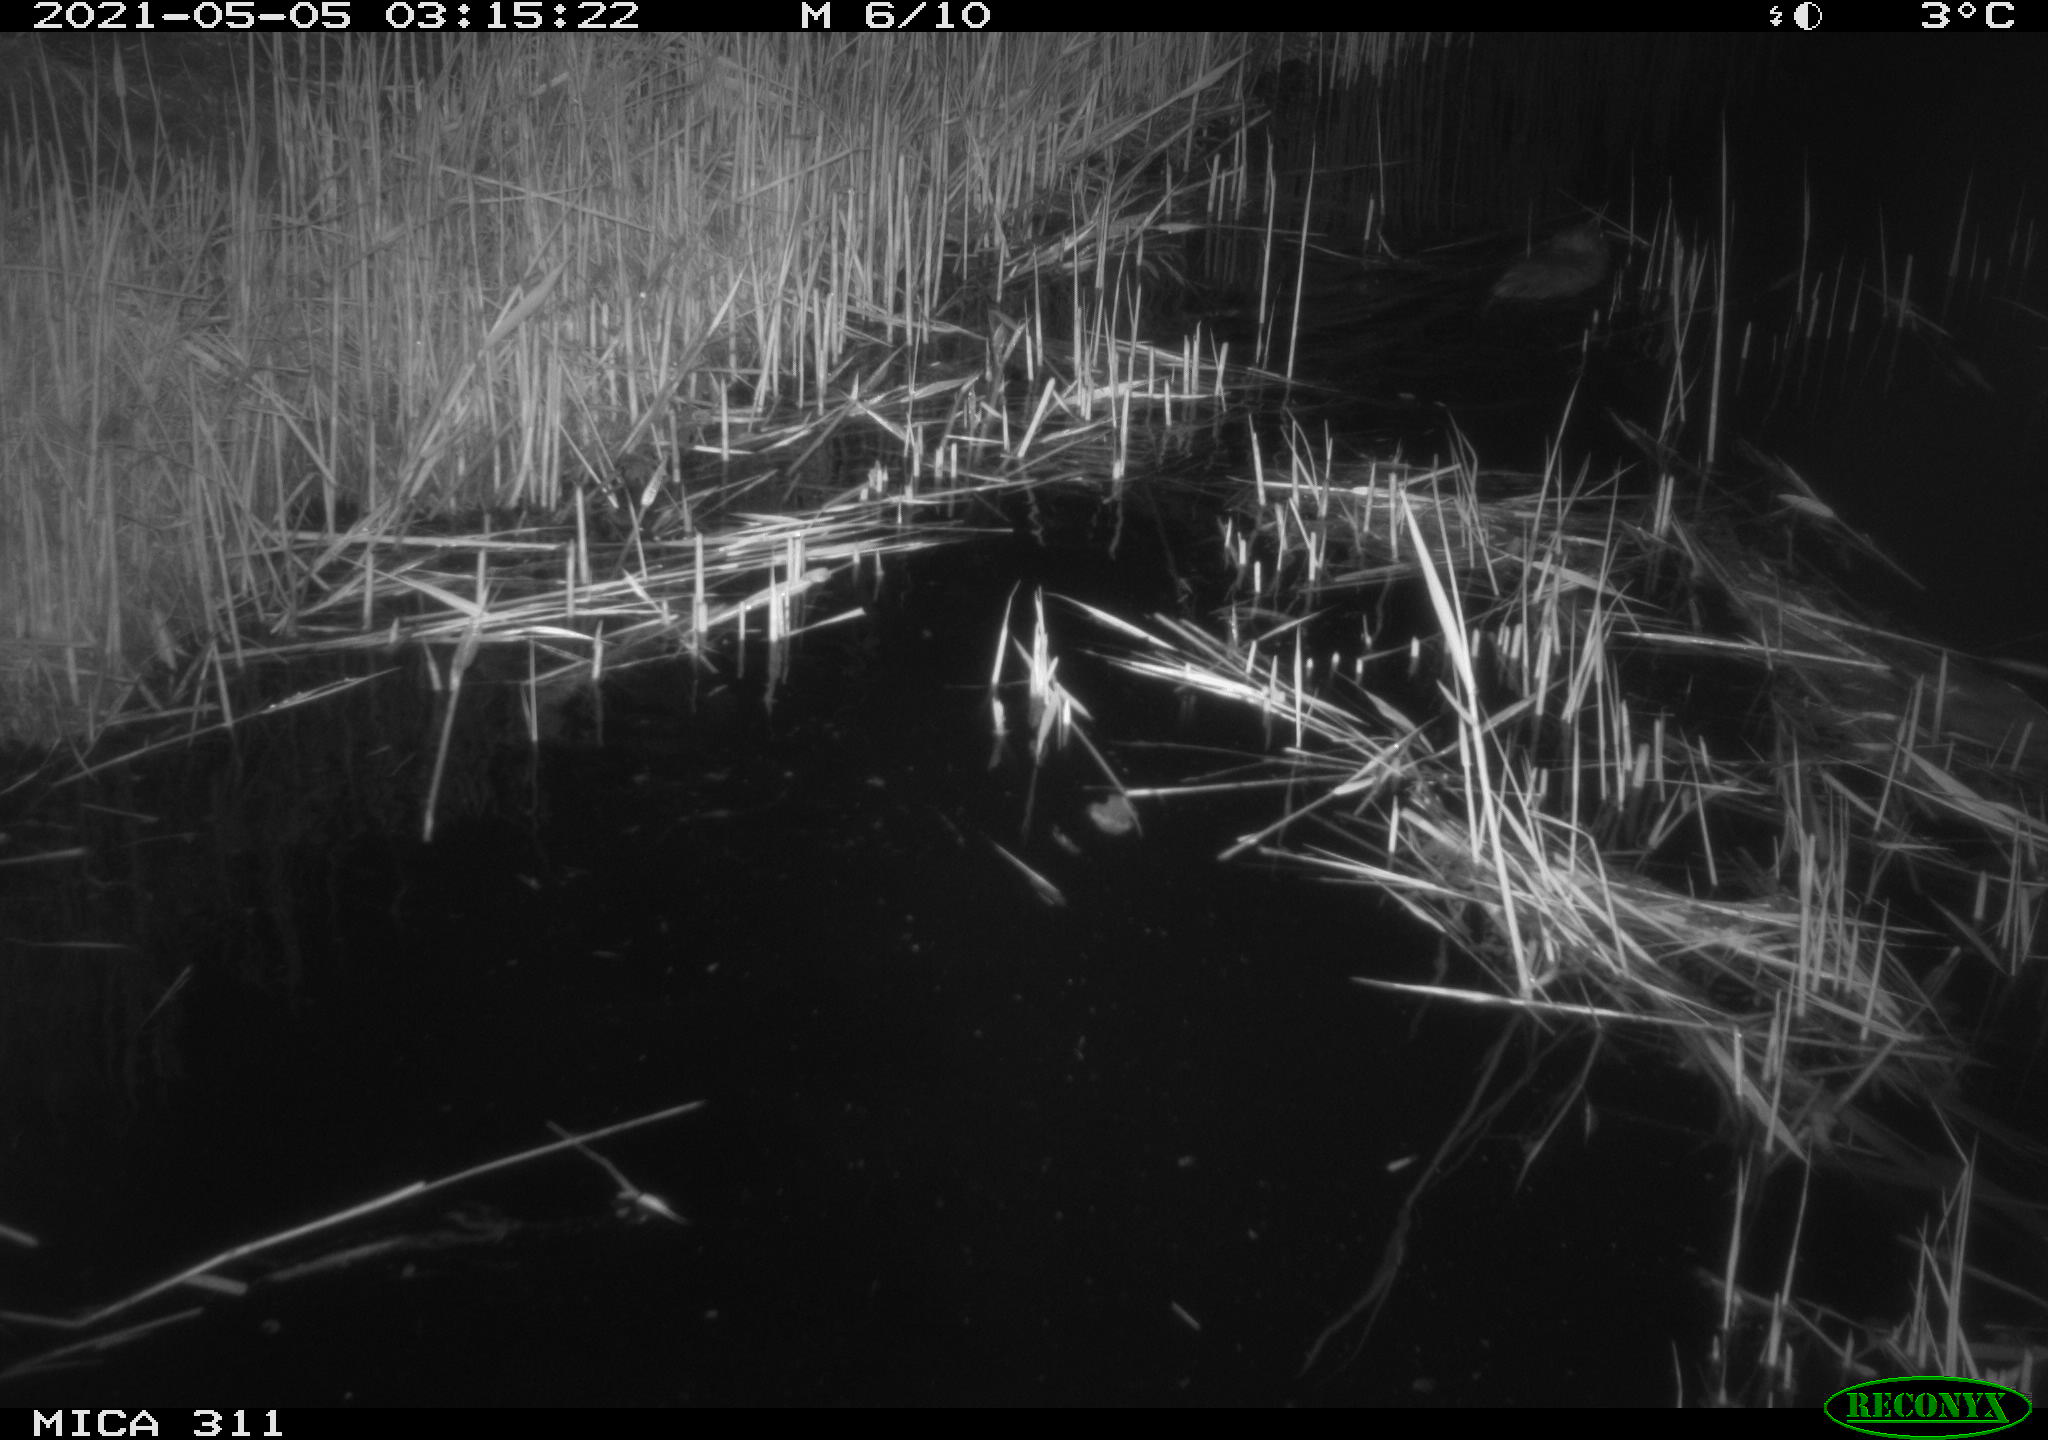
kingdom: Animalia
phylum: Chordata
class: Mammalia
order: Rodentia
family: Cricetidae
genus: Ondatra
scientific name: Ondatra zibethicus
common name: Muskrat
